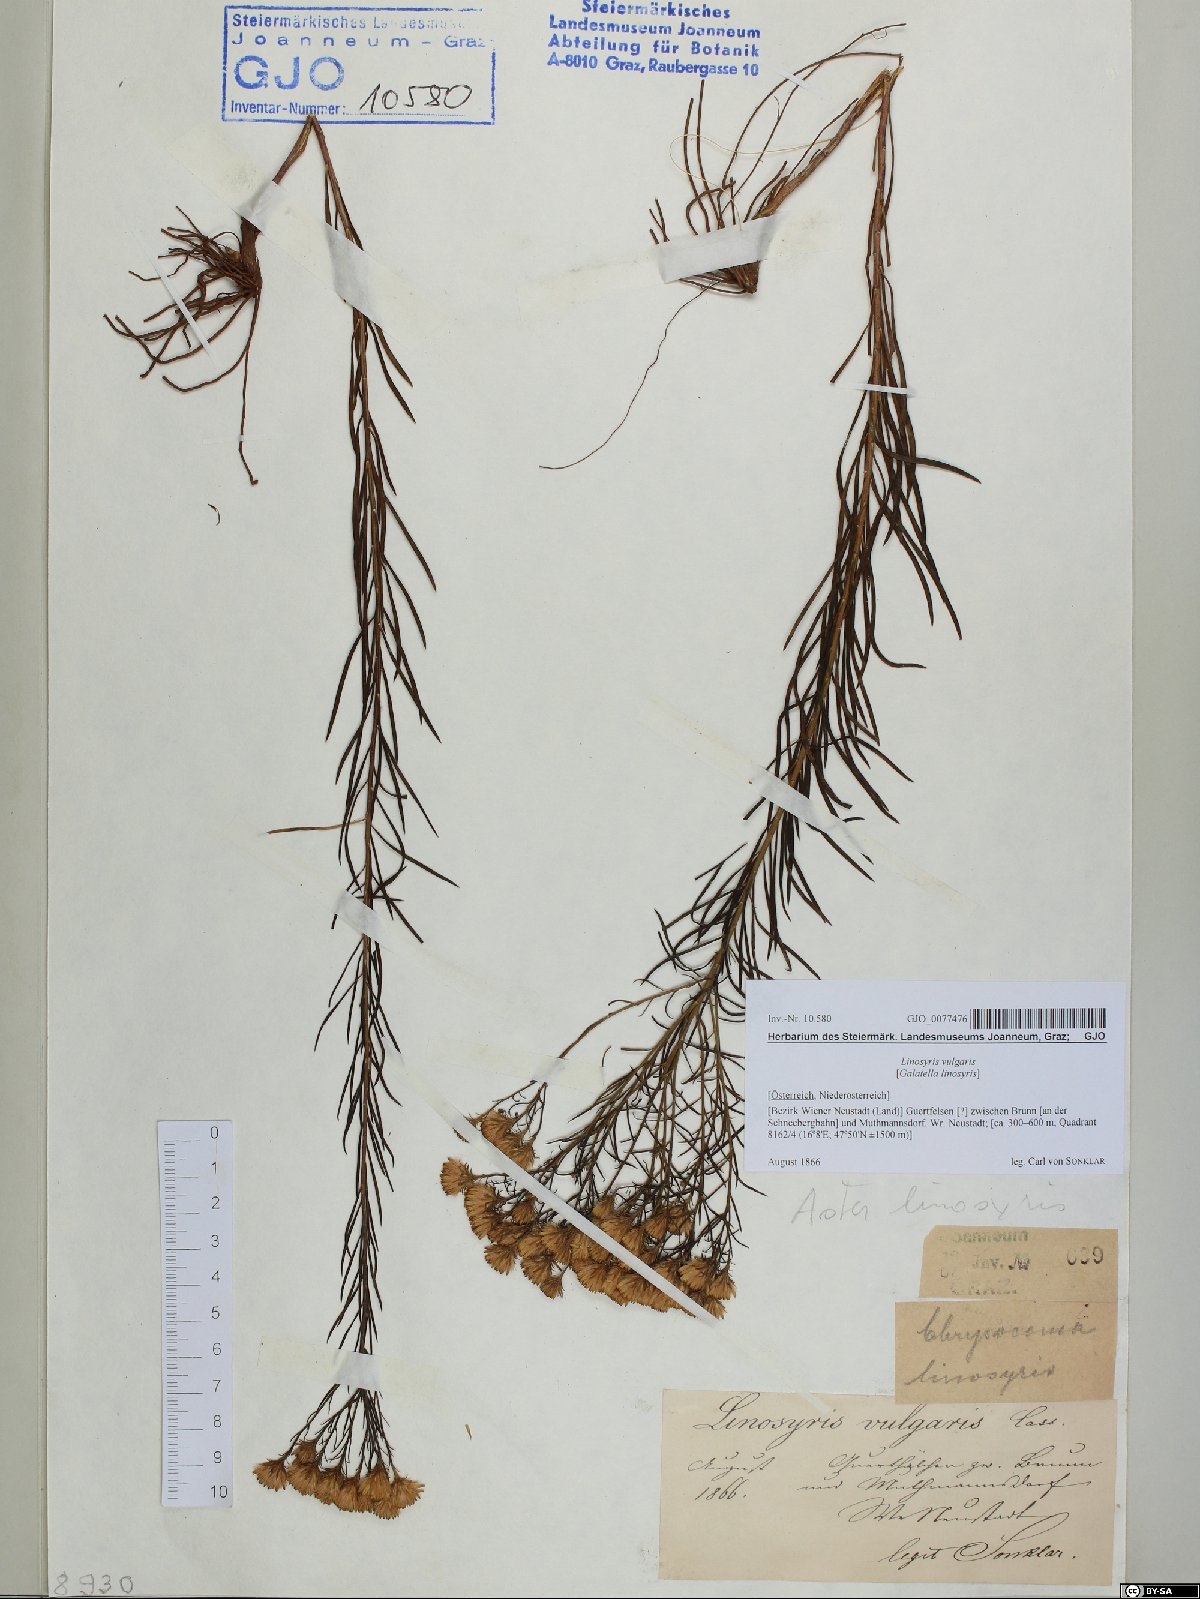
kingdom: Plantae
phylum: Tracheophyta
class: Magnoliopsida
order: Asterales
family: Asteraceae
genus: Galatella
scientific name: Galatella linosyris
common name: Goldilocks aster
